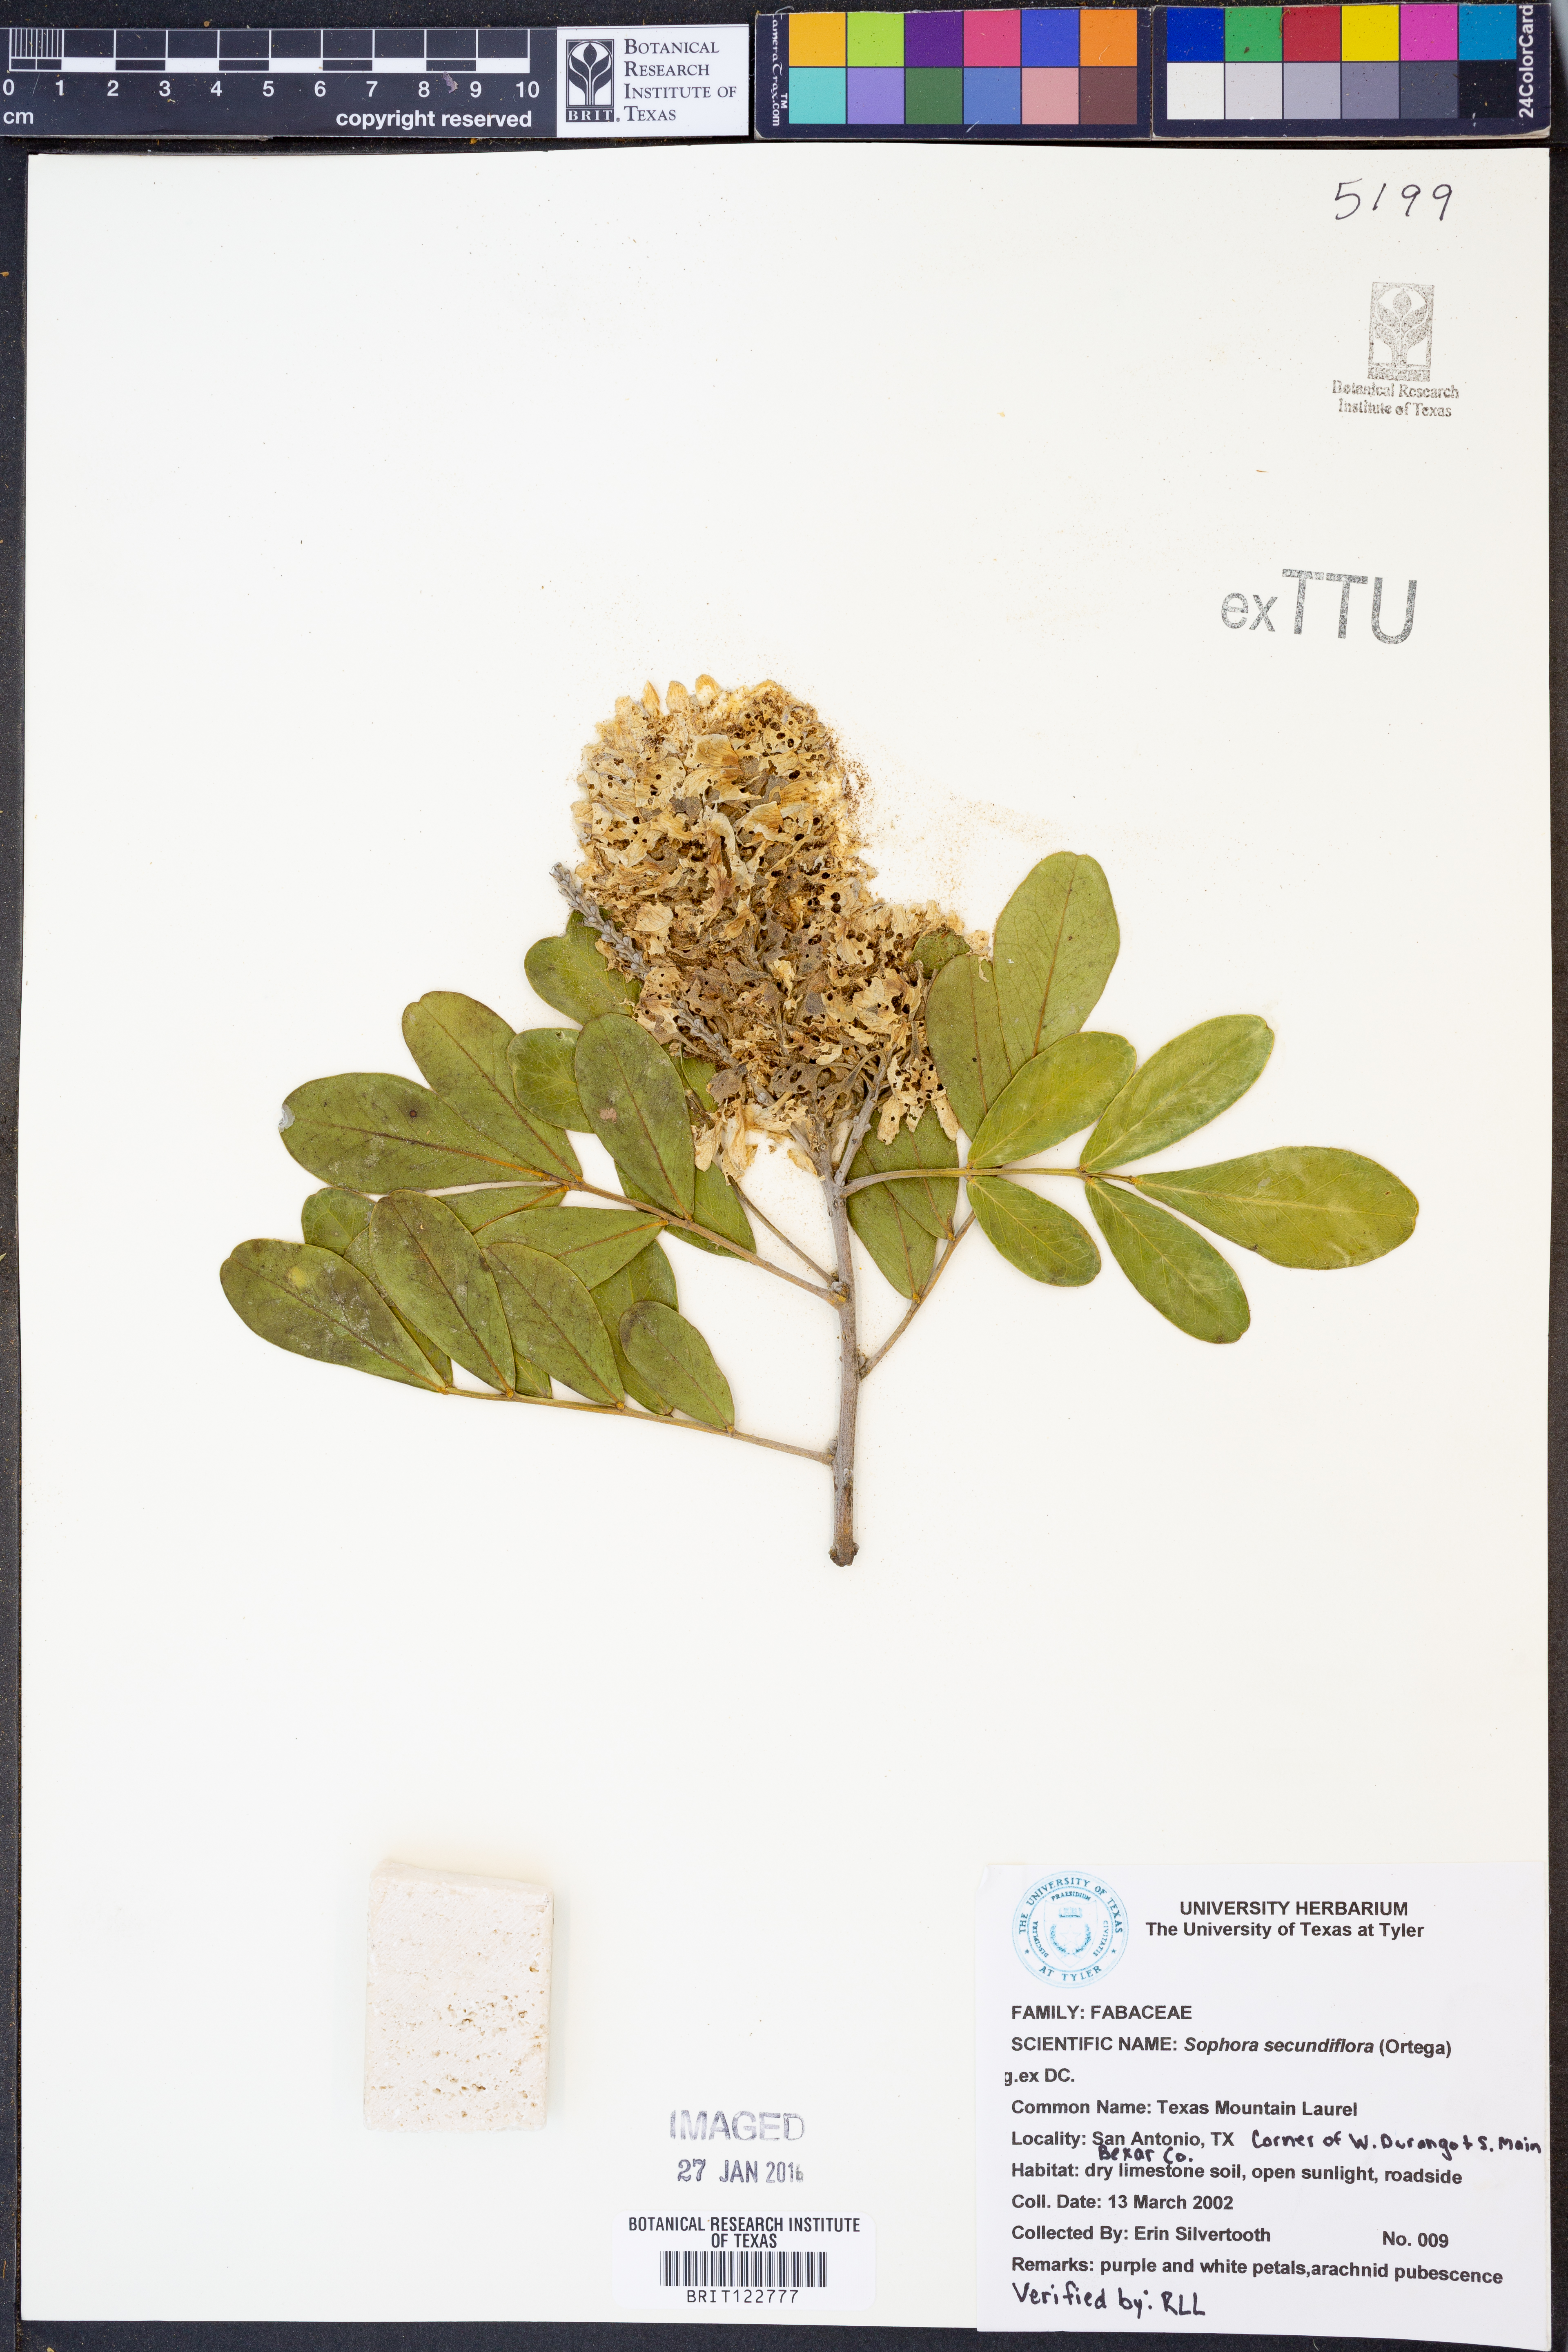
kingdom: Plantae
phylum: Tracheophyta
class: Magnoliopsida
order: Fabales
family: Fabaceae
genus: Dermatophyllum
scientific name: Dermatophyllum secundiflorum
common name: Texas-mountain-laurel
